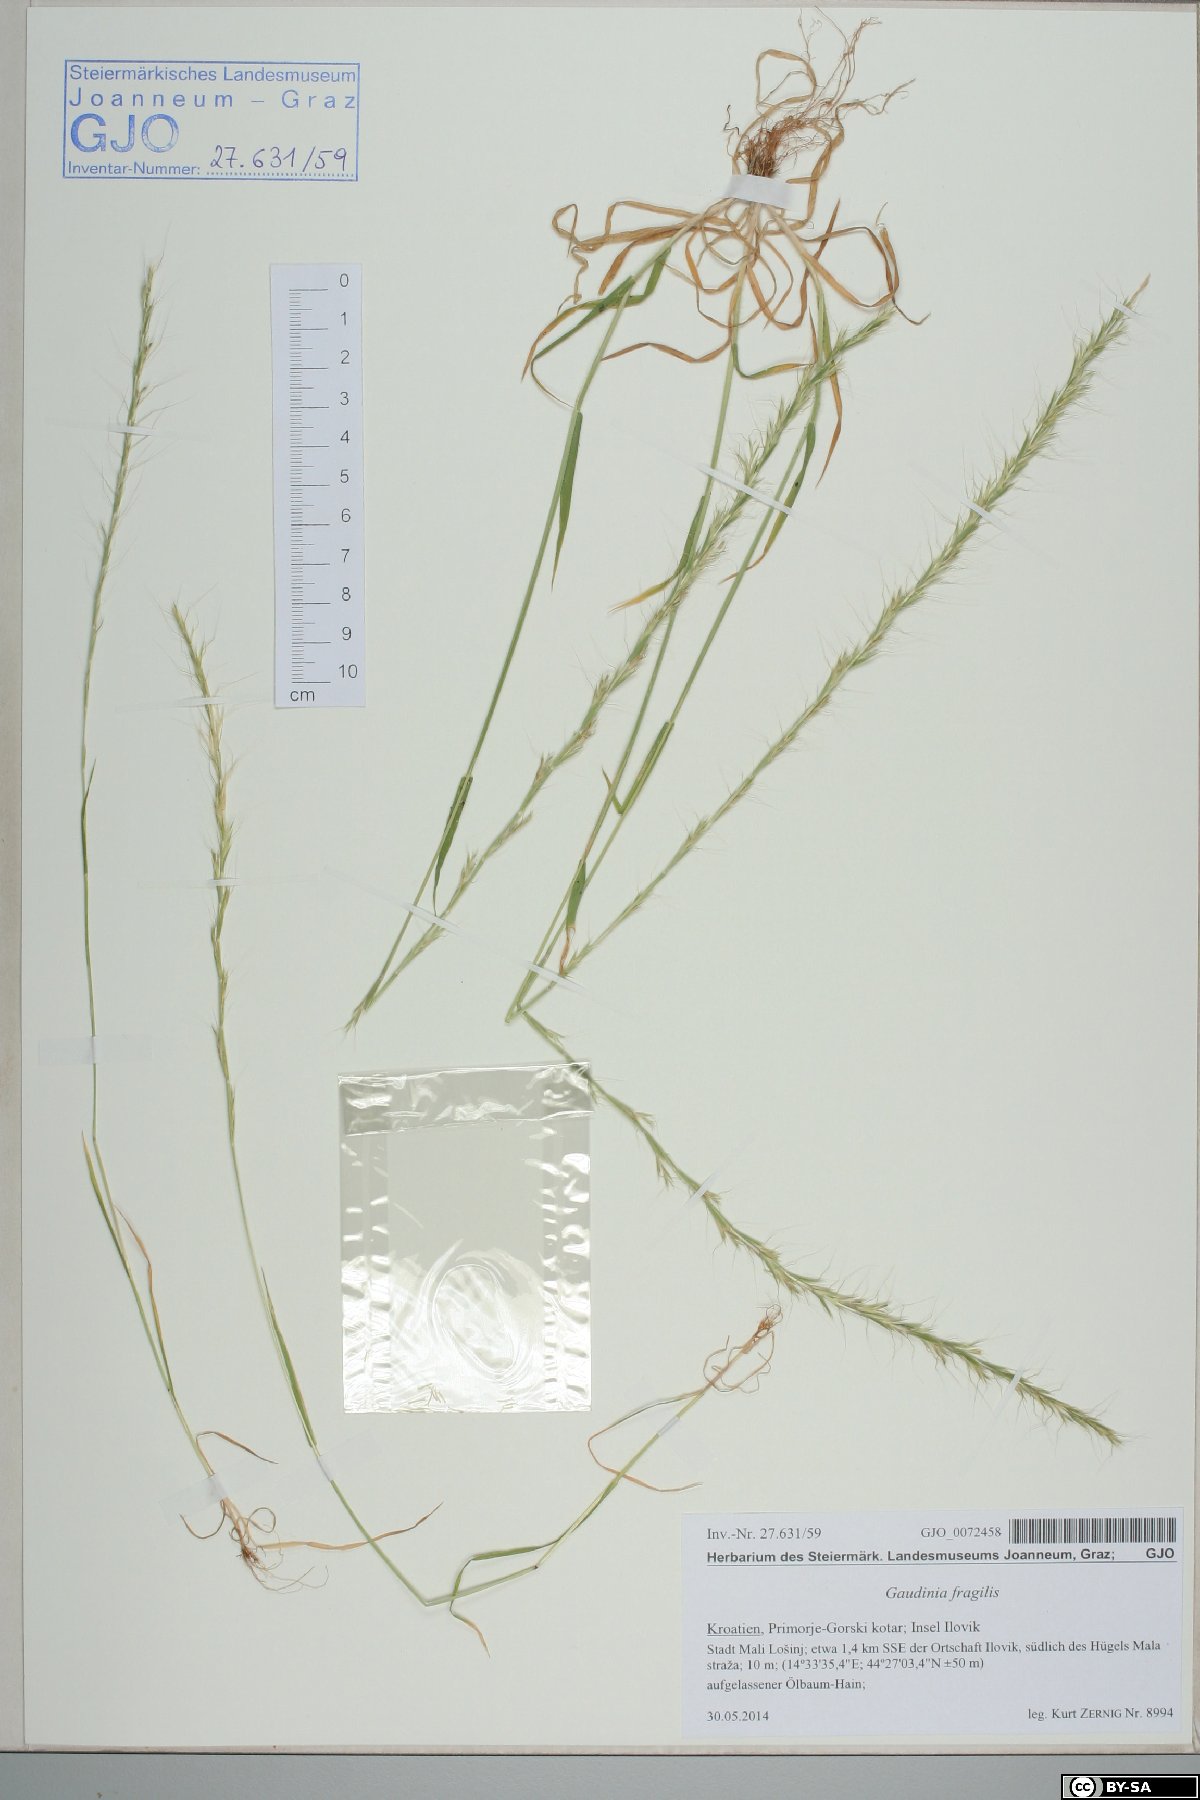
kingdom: Plantae
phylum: Tracheophyta
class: Liliopsida
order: Poales
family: Poaceae
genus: Gaudinia
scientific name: Gaudinia fragilis
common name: French oat-grass
